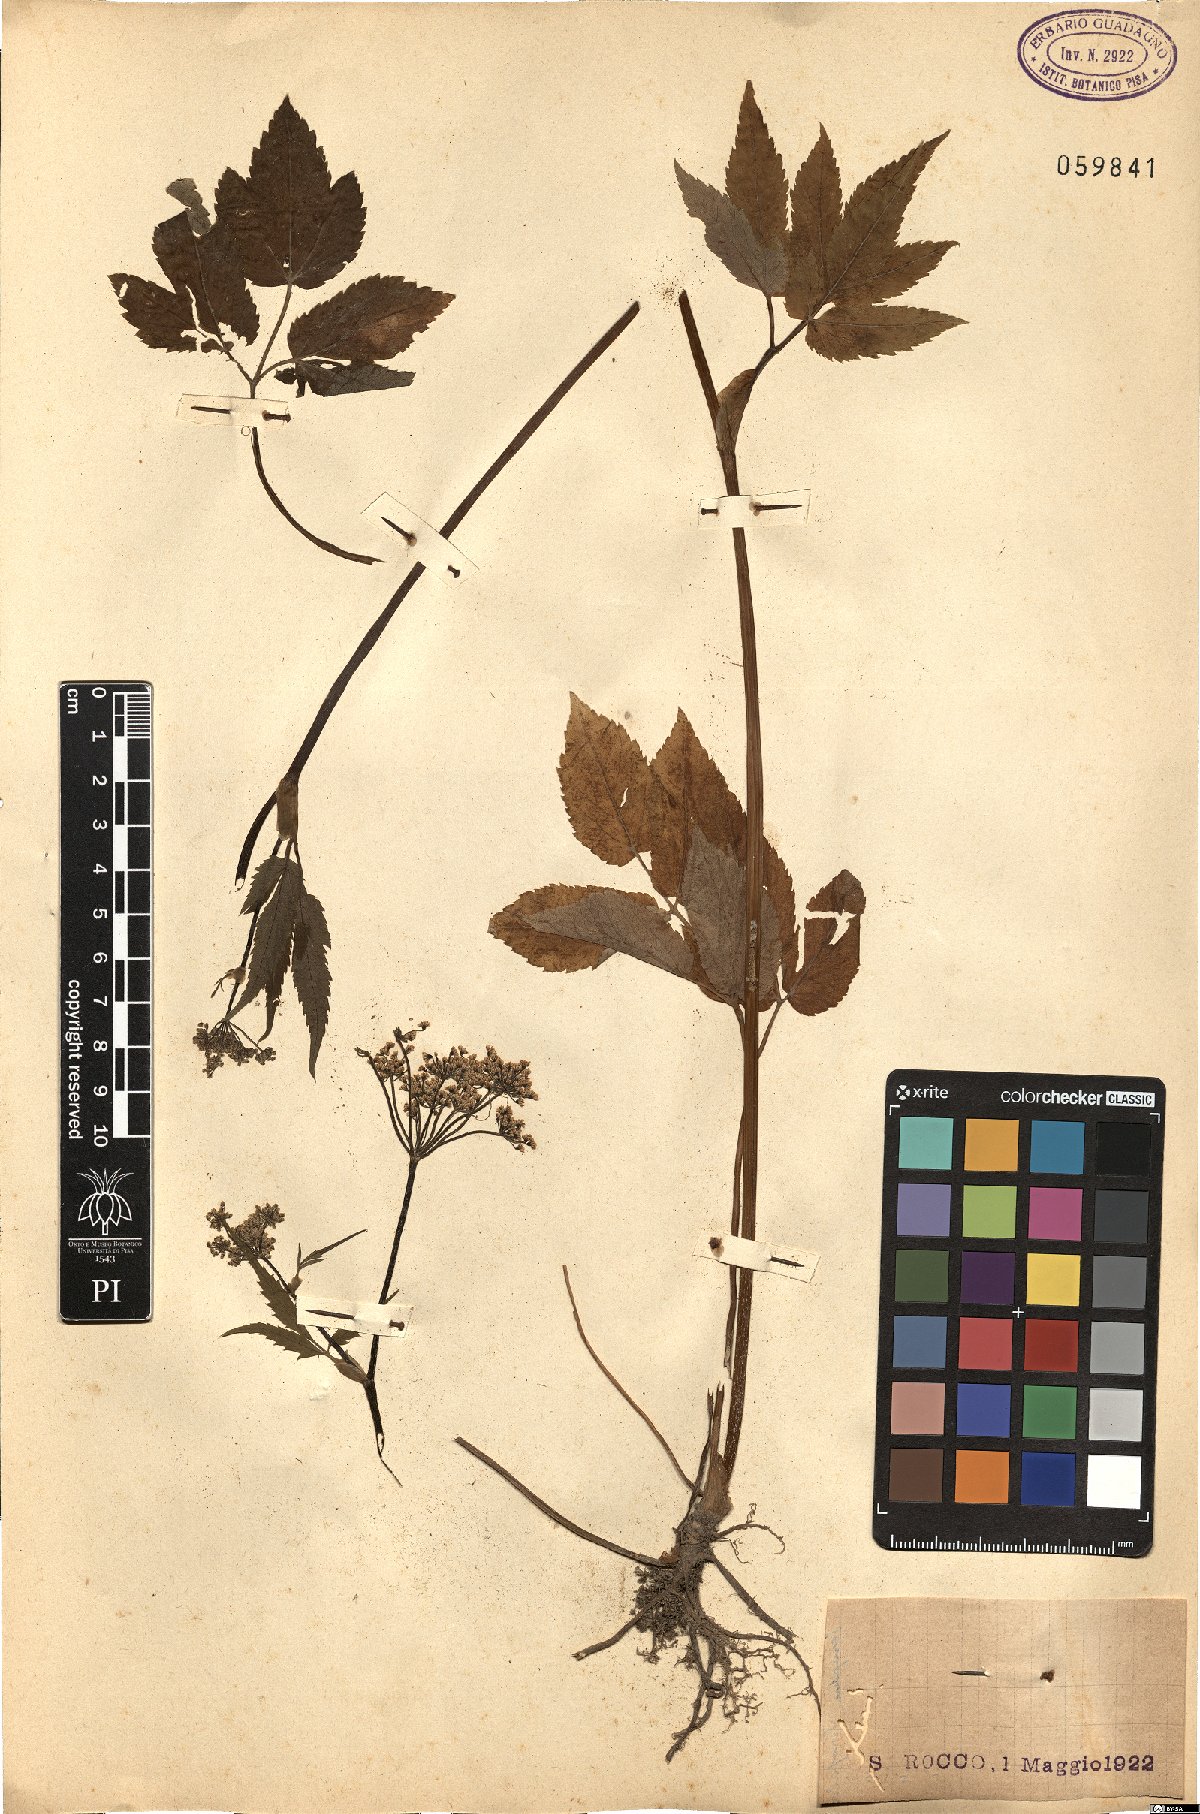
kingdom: Plantae
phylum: Tracheophyta
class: Magnoliopsida
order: Apiales
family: Apiaceae
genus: Aegopodium
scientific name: Aegopodium podagraria
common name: Ground-elder
